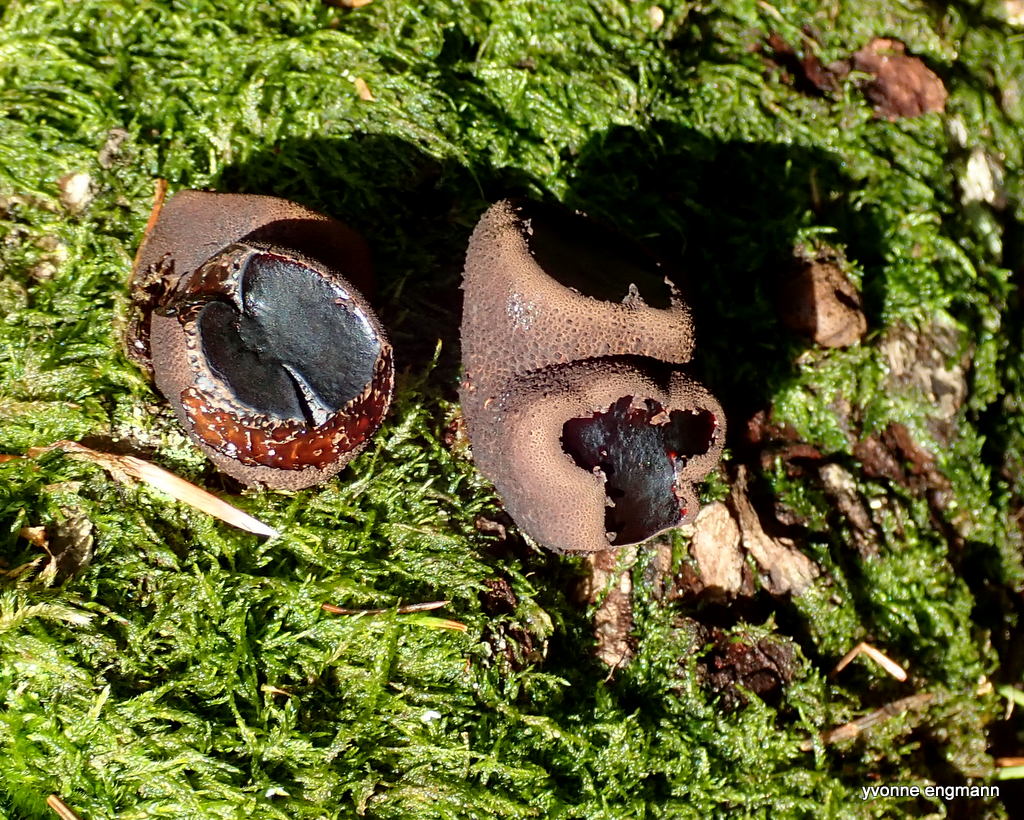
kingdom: Fungi
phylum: Ascomycota
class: Leotiomycetes
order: Phacidiales
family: Phacidiaceae
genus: Bulgaria
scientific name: Bulgaria inquinans
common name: afsmittende topsvamp
